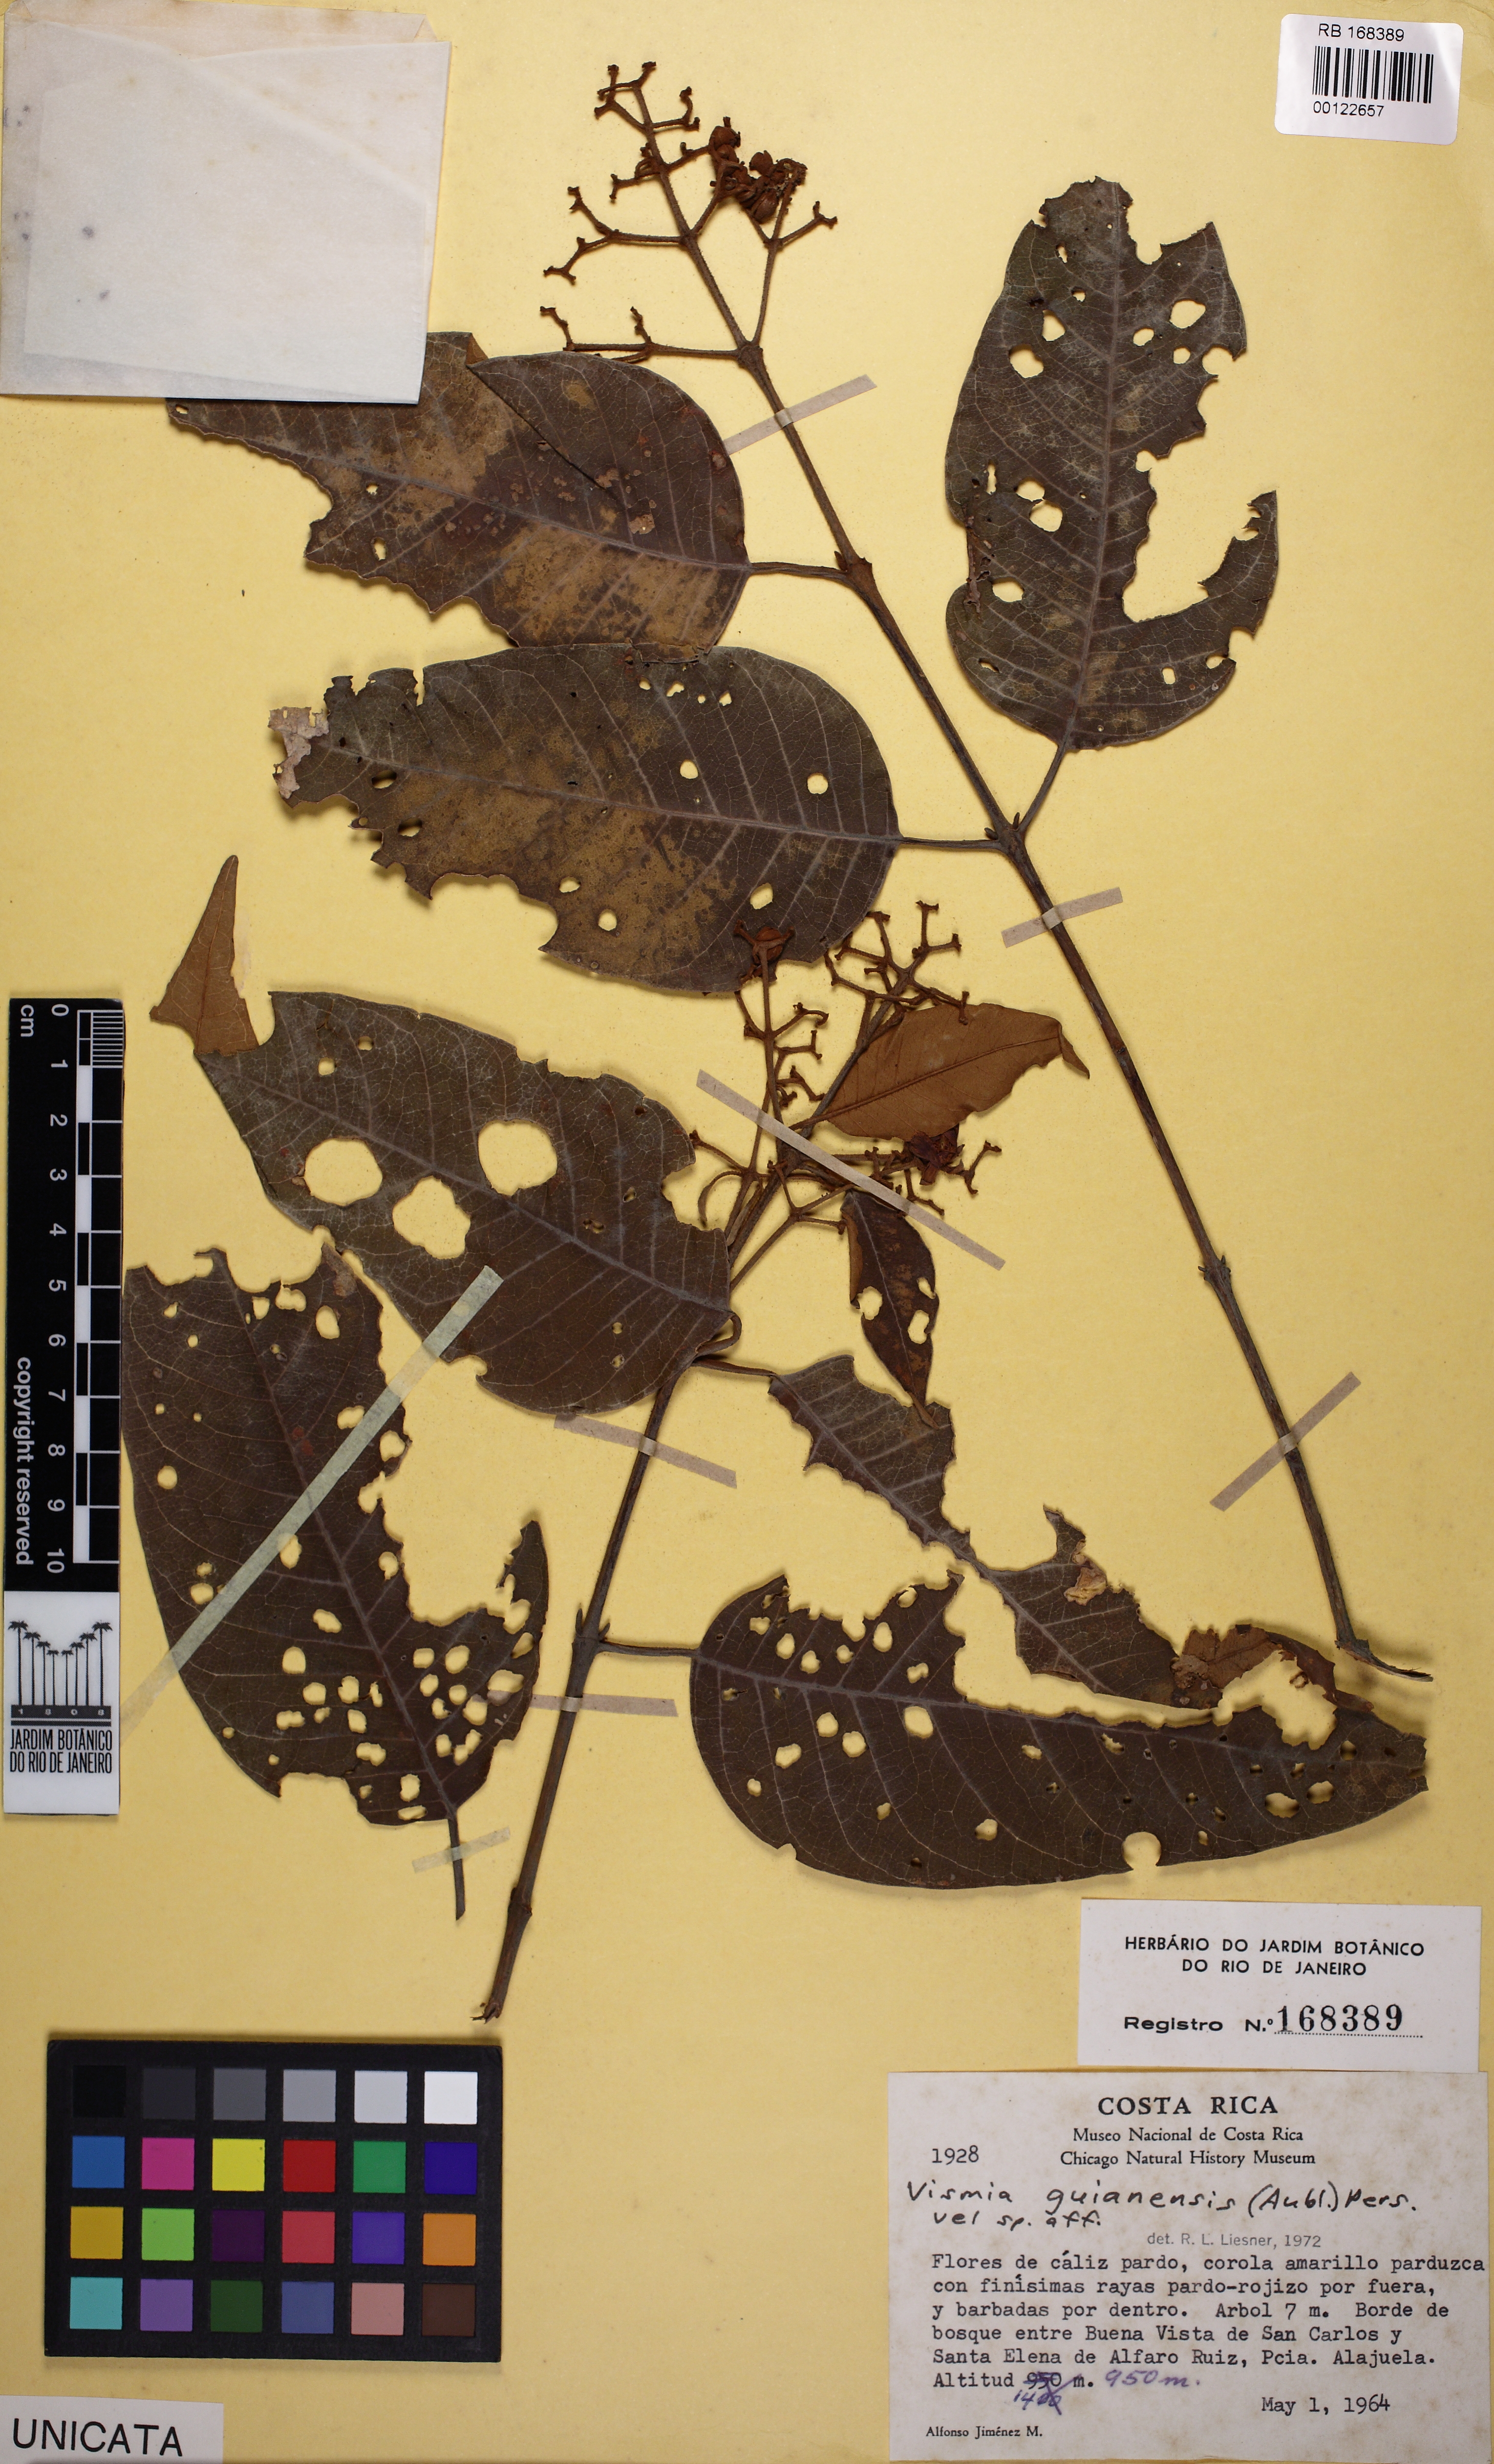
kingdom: Plantae
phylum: Tracheophyta
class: Magnoliopsida
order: Malpighiales
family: Hypericaceae
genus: Vismia
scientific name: Vismia guianensis
